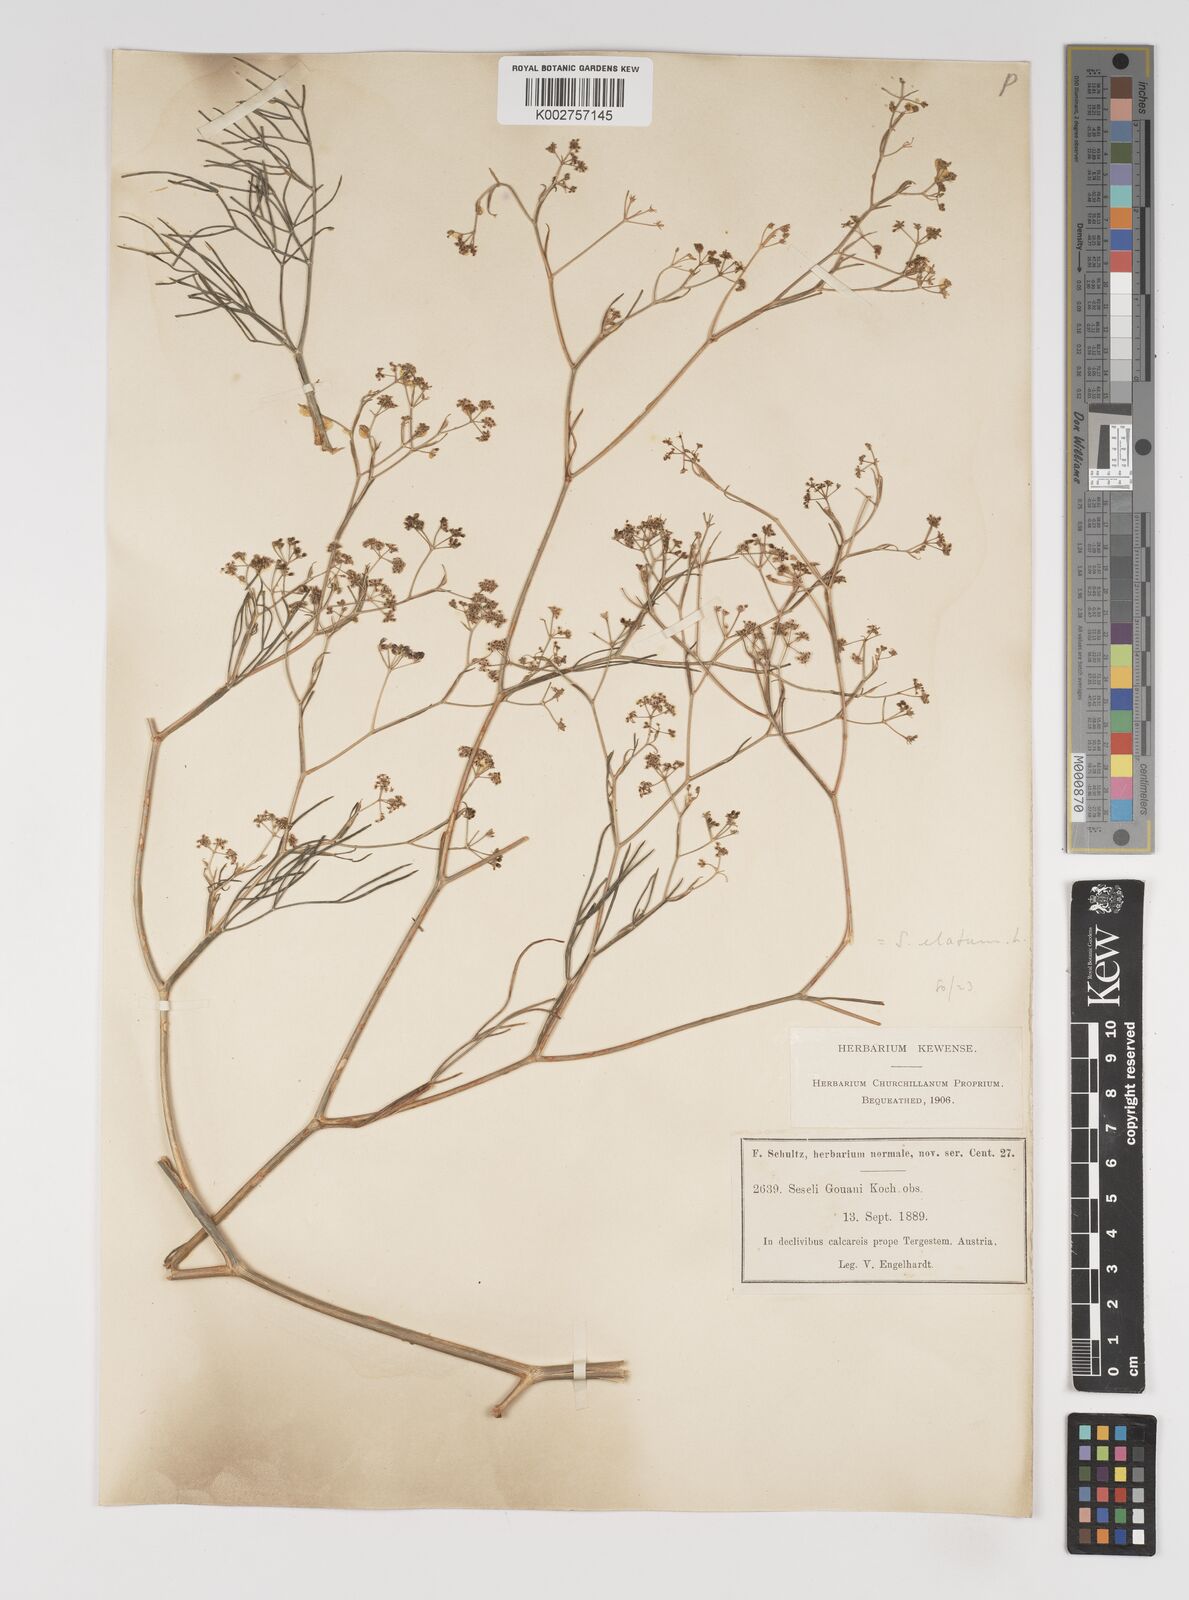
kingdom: Plantae
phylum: Tracheophyta
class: Magnoliopsida
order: Apiales
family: Apiaceae
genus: Seseli
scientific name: Seseli longifolium
